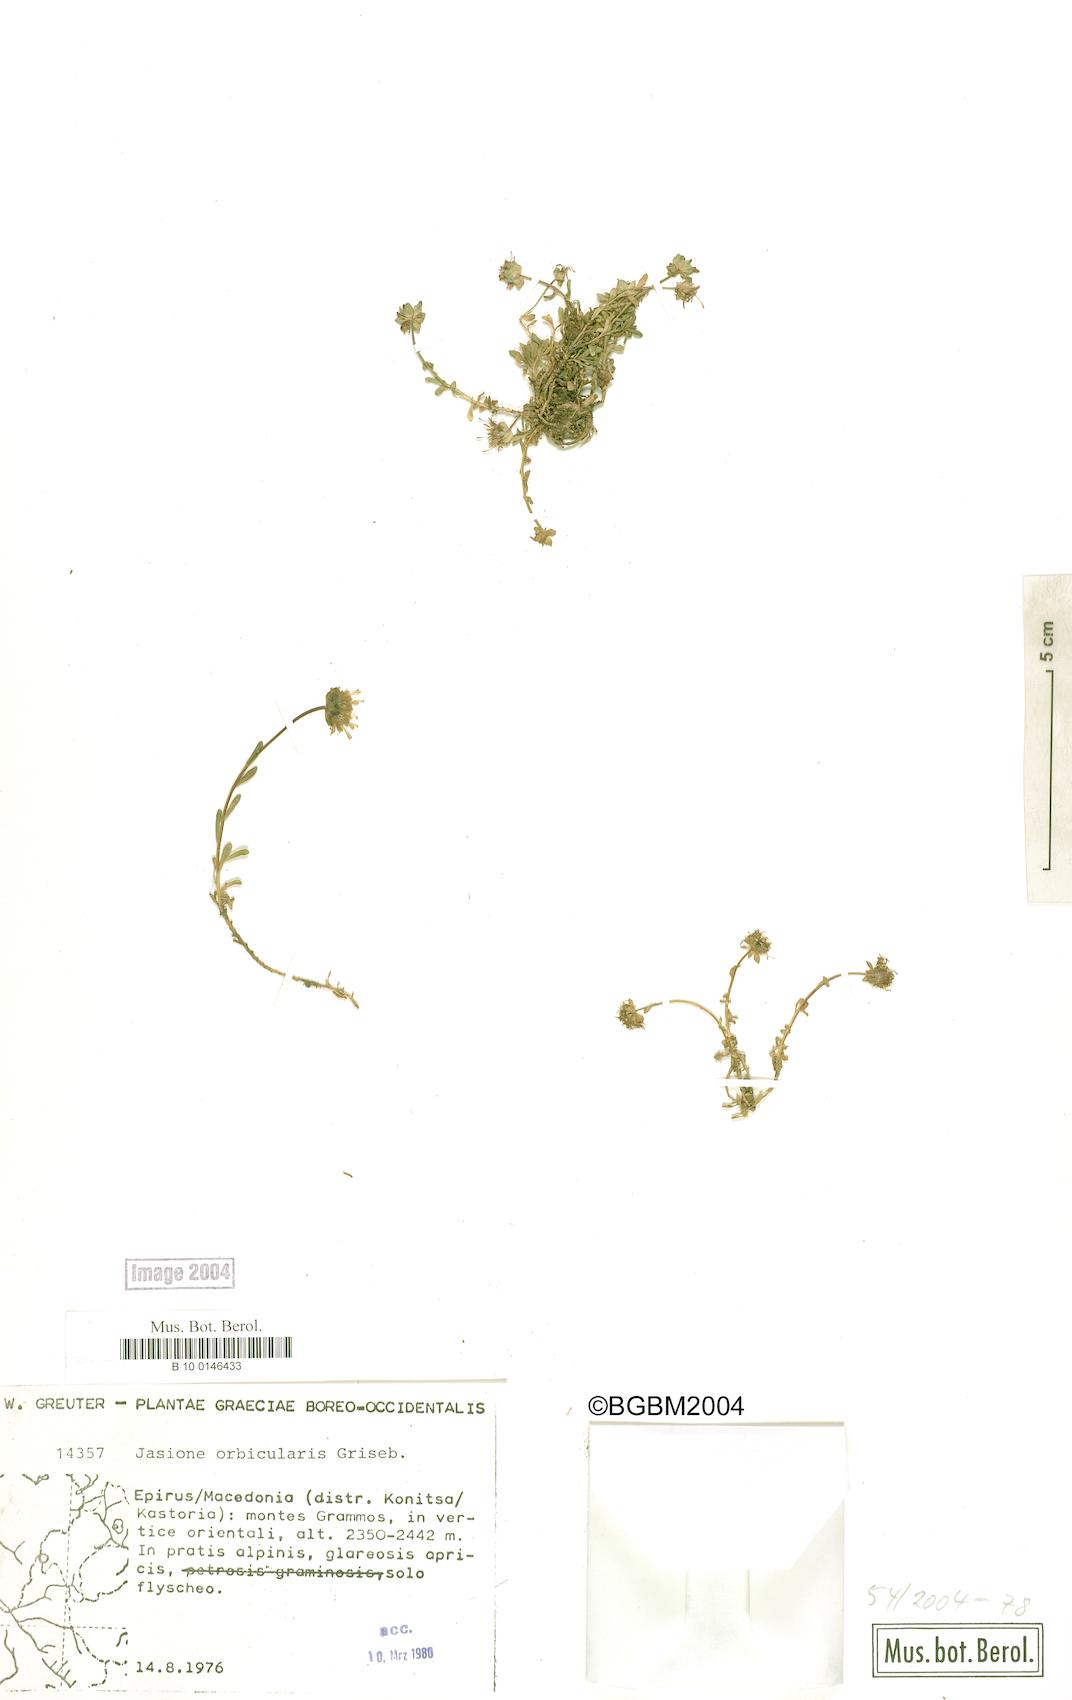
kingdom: Plantae
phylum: Tracheophyta
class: Magnoliopsida
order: Asterales
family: Campanulaceae
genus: Jasione
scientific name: Jasione orbiculata
